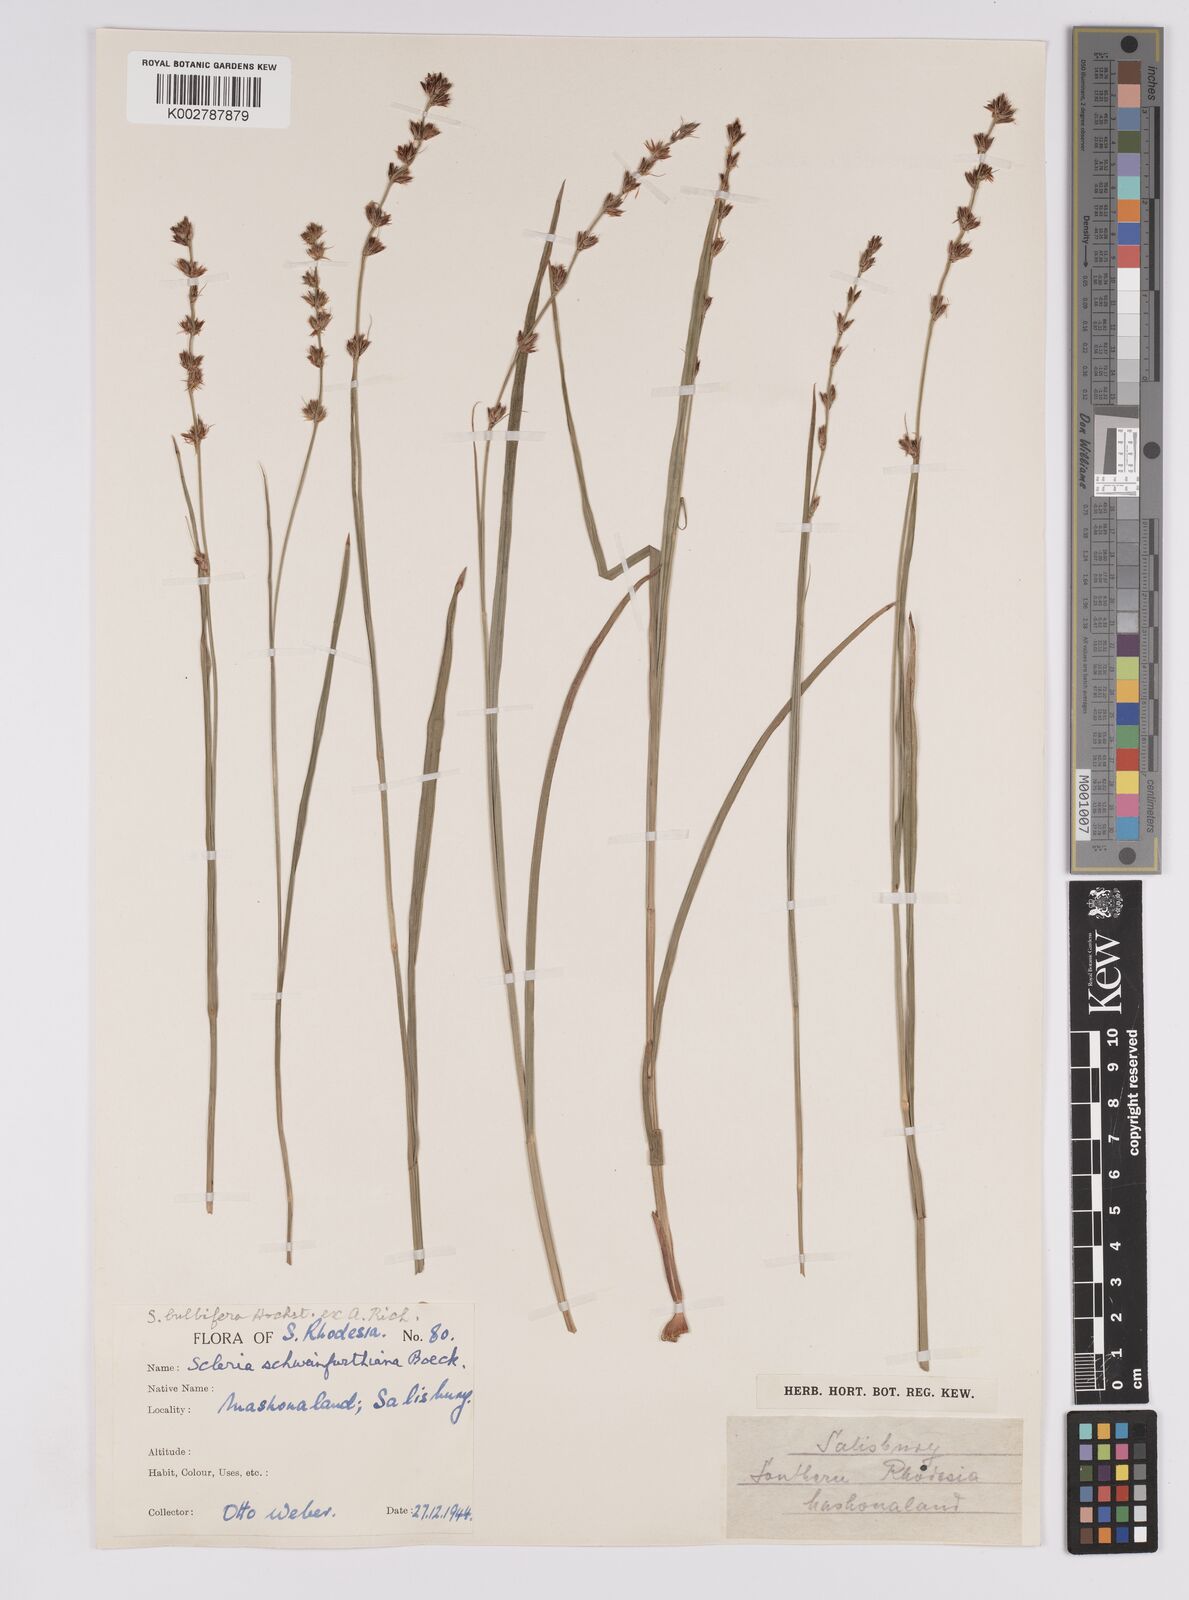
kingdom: Plantae
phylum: Tracheophyta
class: Liliopsida
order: Poales
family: Cyperaceae
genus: Scleria
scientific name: Scleria bulbifera
